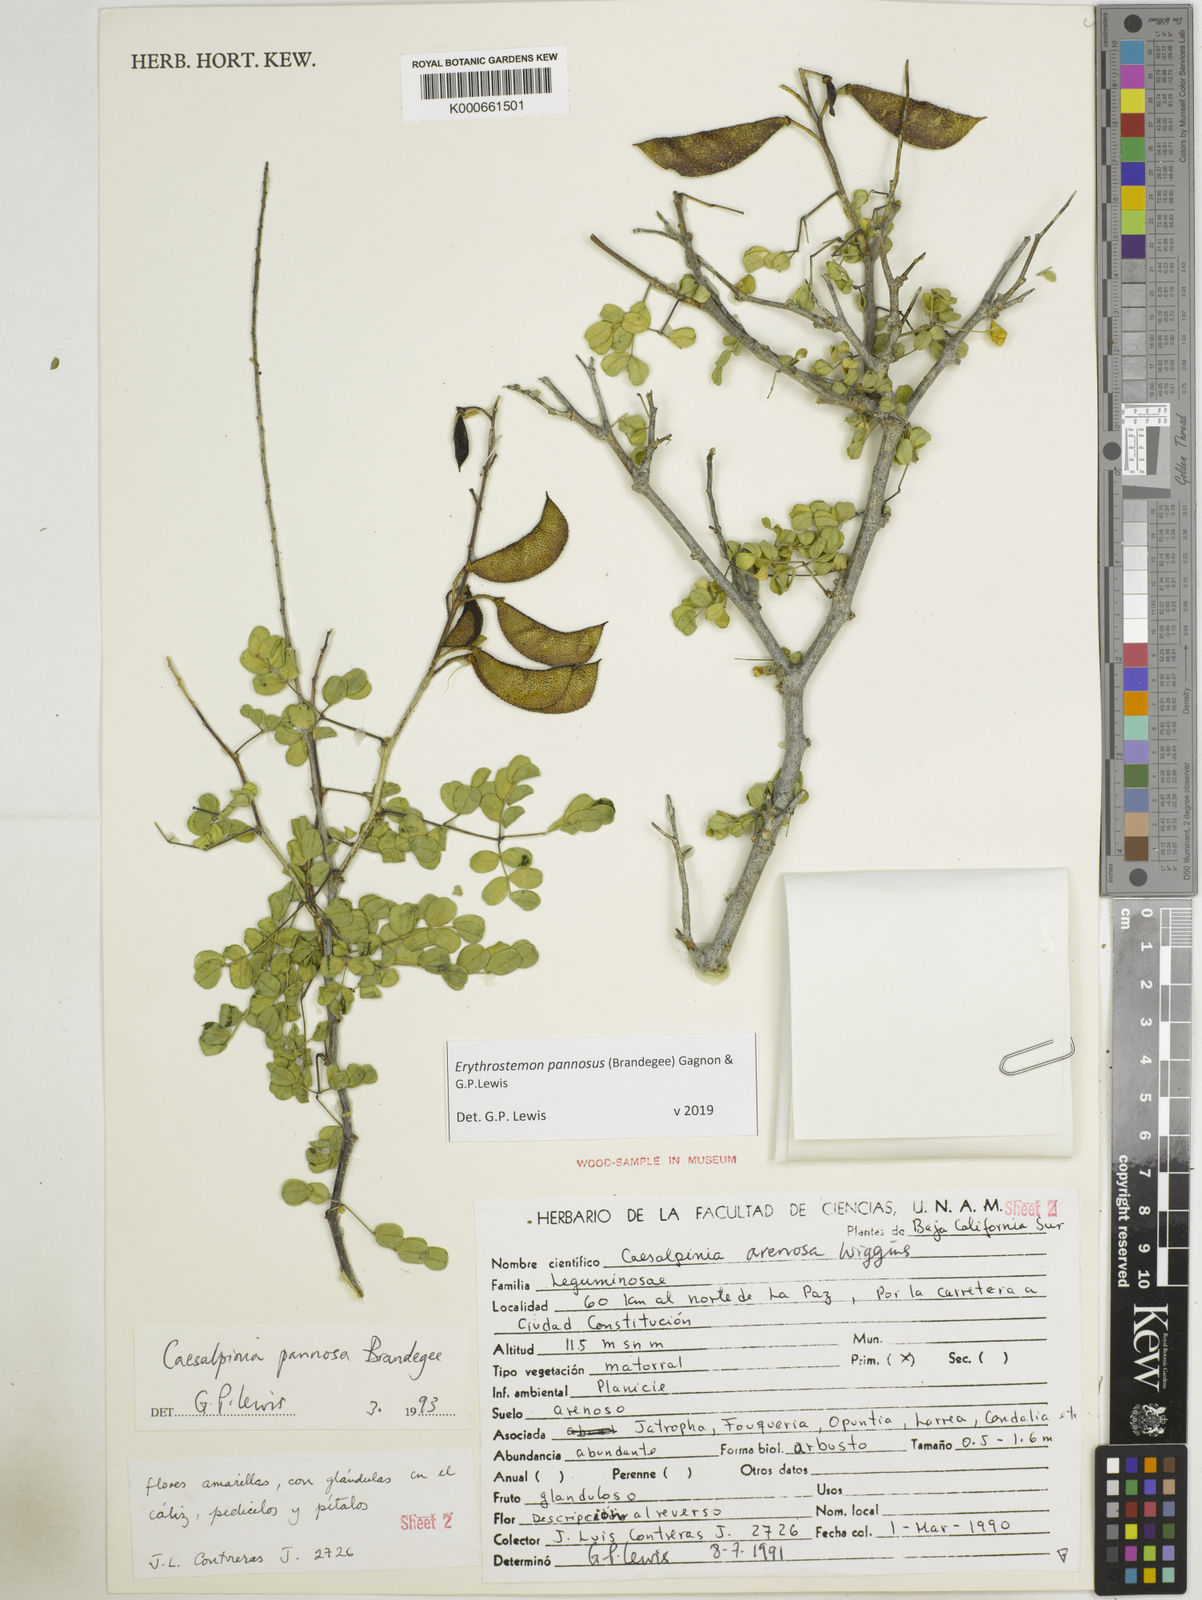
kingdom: Plantae
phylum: Tracheophyta
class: Magnoliopsida
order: Fabales
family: Fabaceae
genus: Erythrostemon
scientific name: Erythrostemon pannosus
